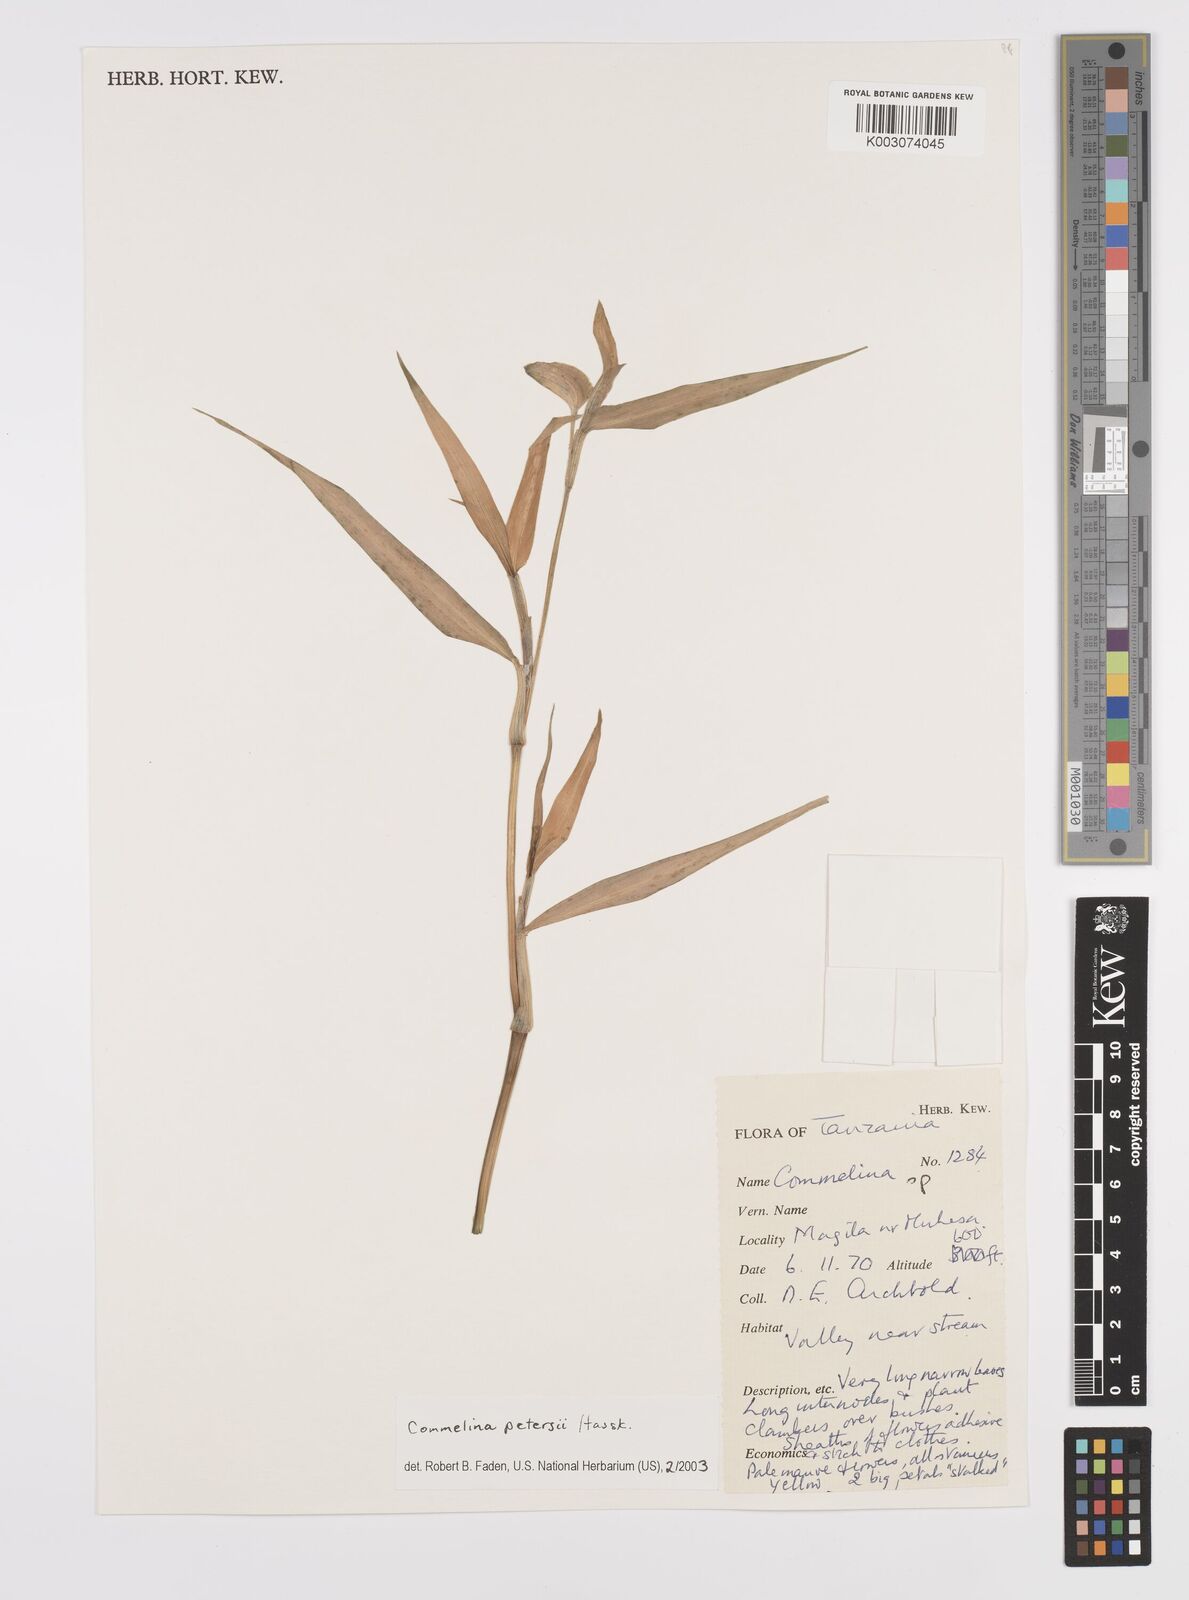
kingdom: Plantae
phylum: Tracheophyta
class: Liliopsida
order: Commelinales
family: Commelinaceae
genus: Commelina
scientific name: Commelina petersii
